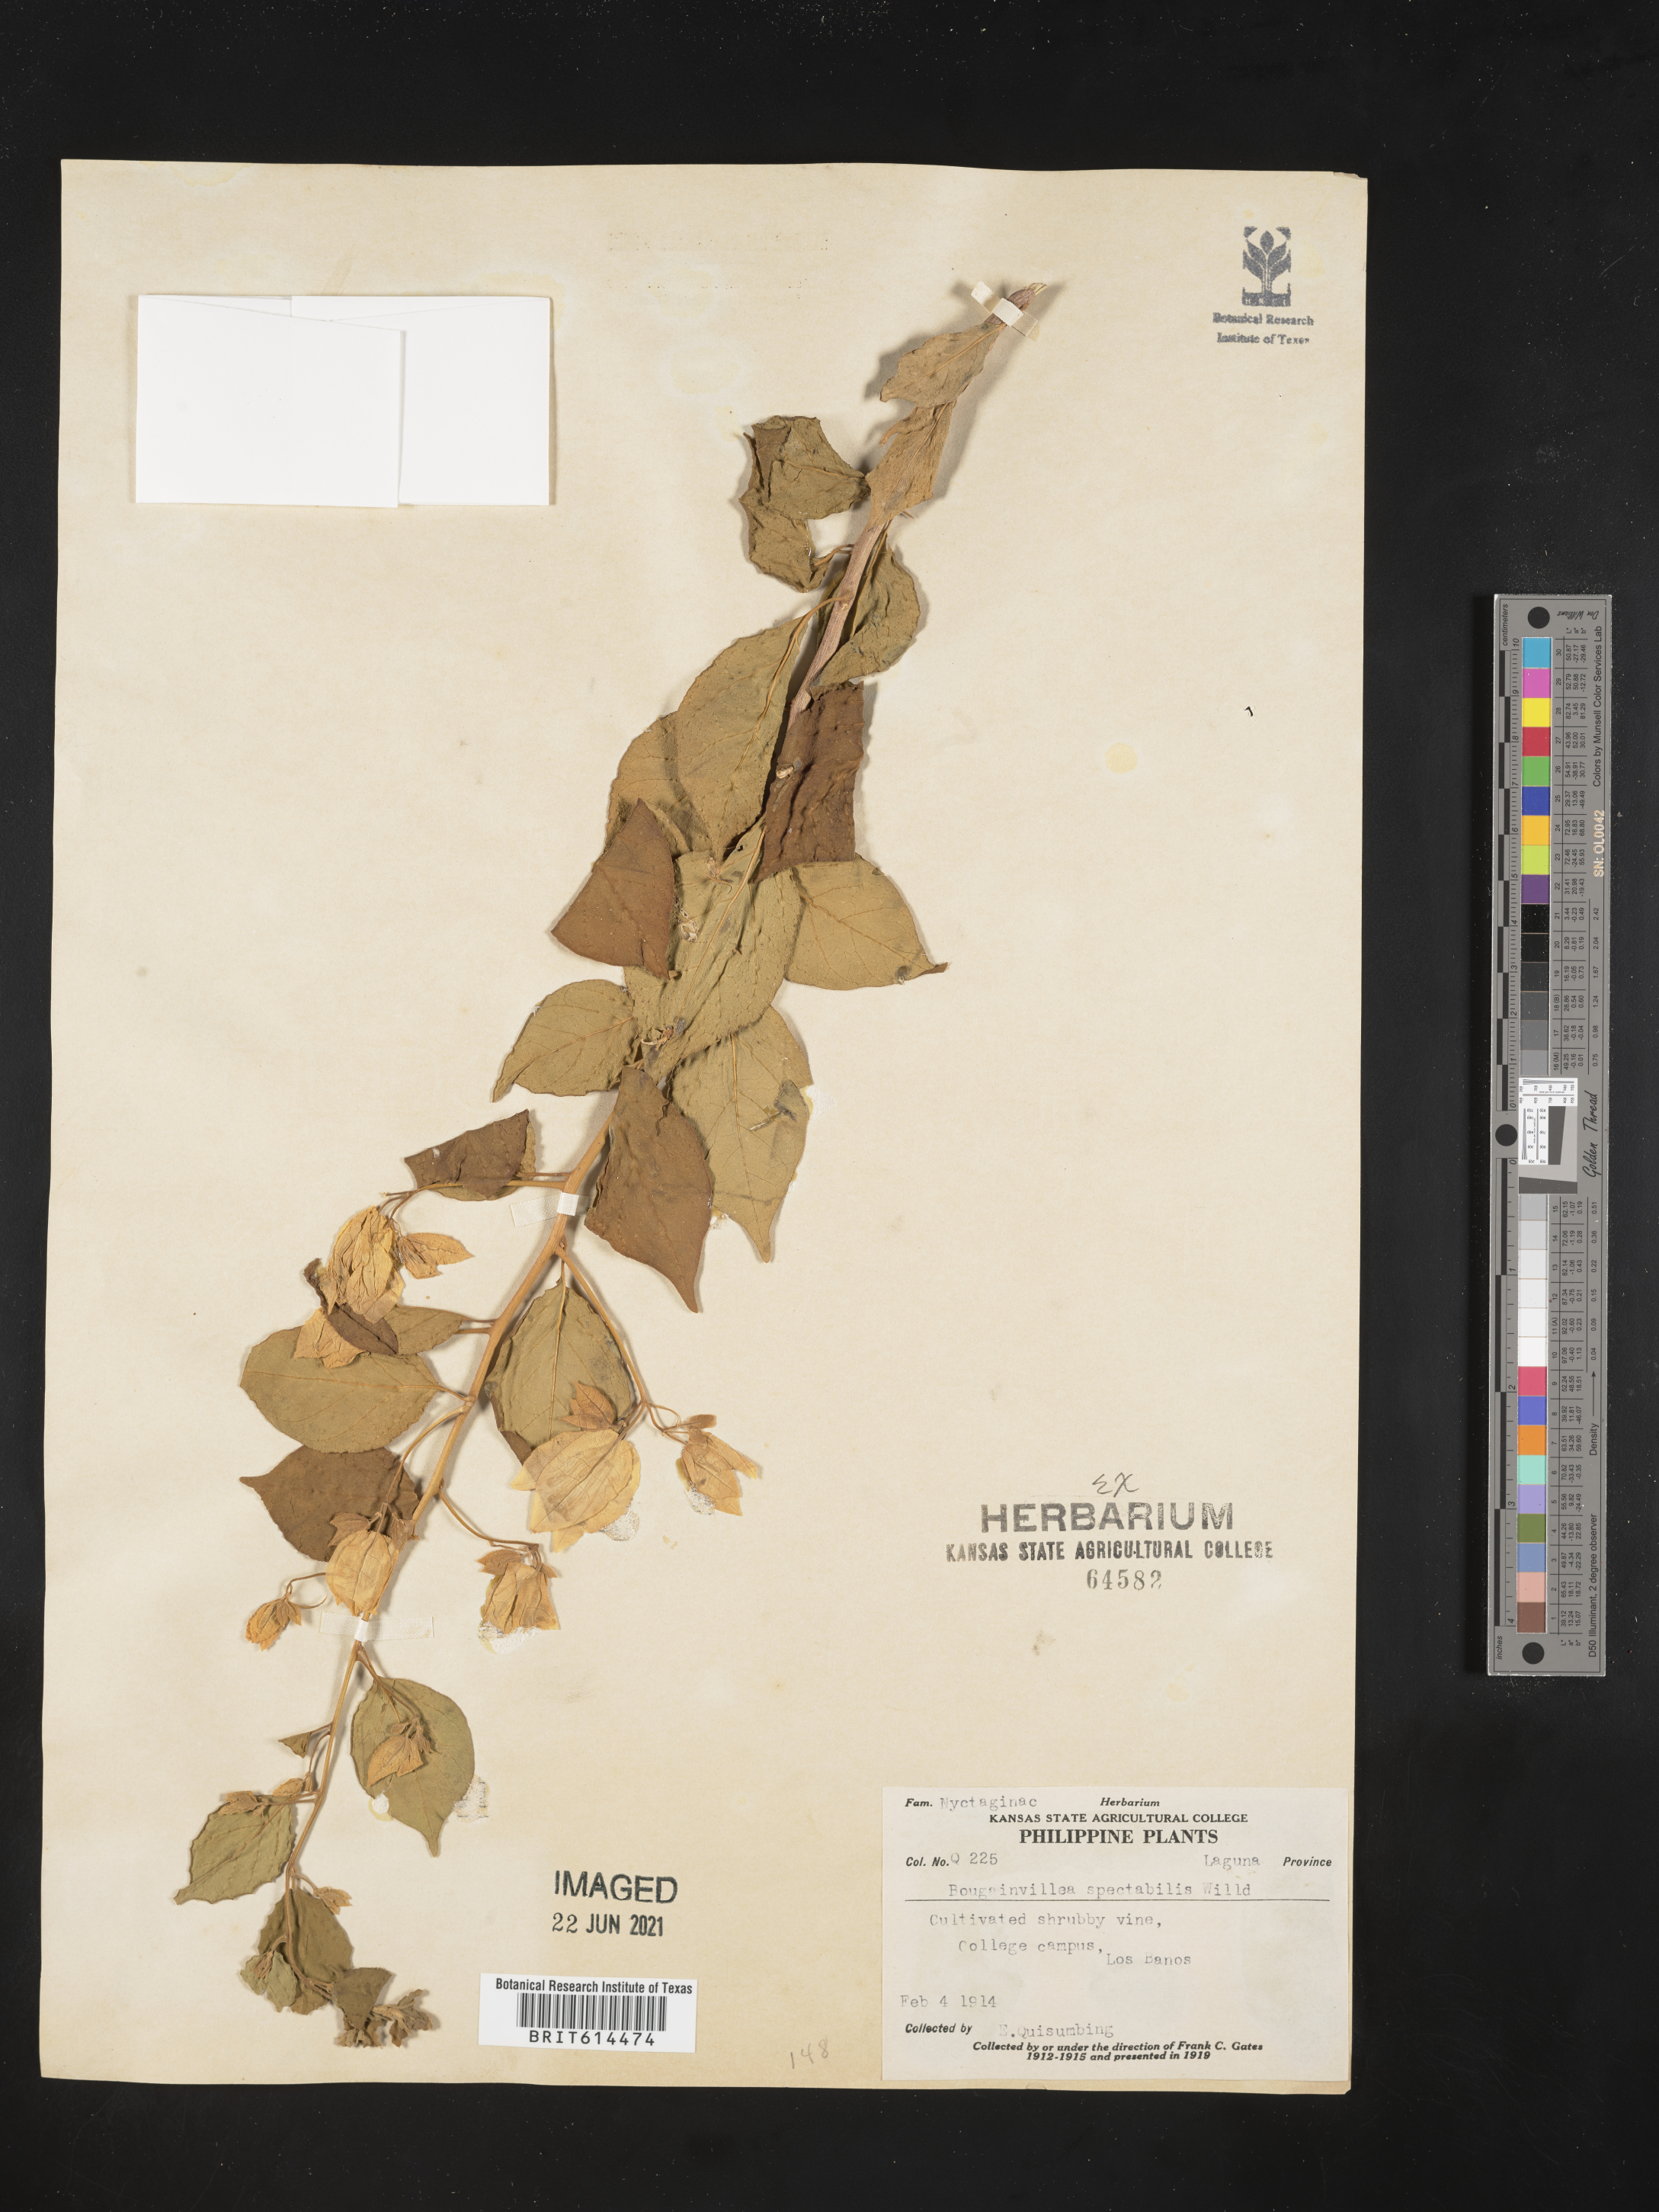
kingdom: Plantae
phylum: Tracheophyta
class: Magnoliopsida
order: Caryophyllales
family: Nyctaginaceae
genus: Bougainvillea
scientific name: Bougainvillea spectabilis
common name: Great bougainvillea
